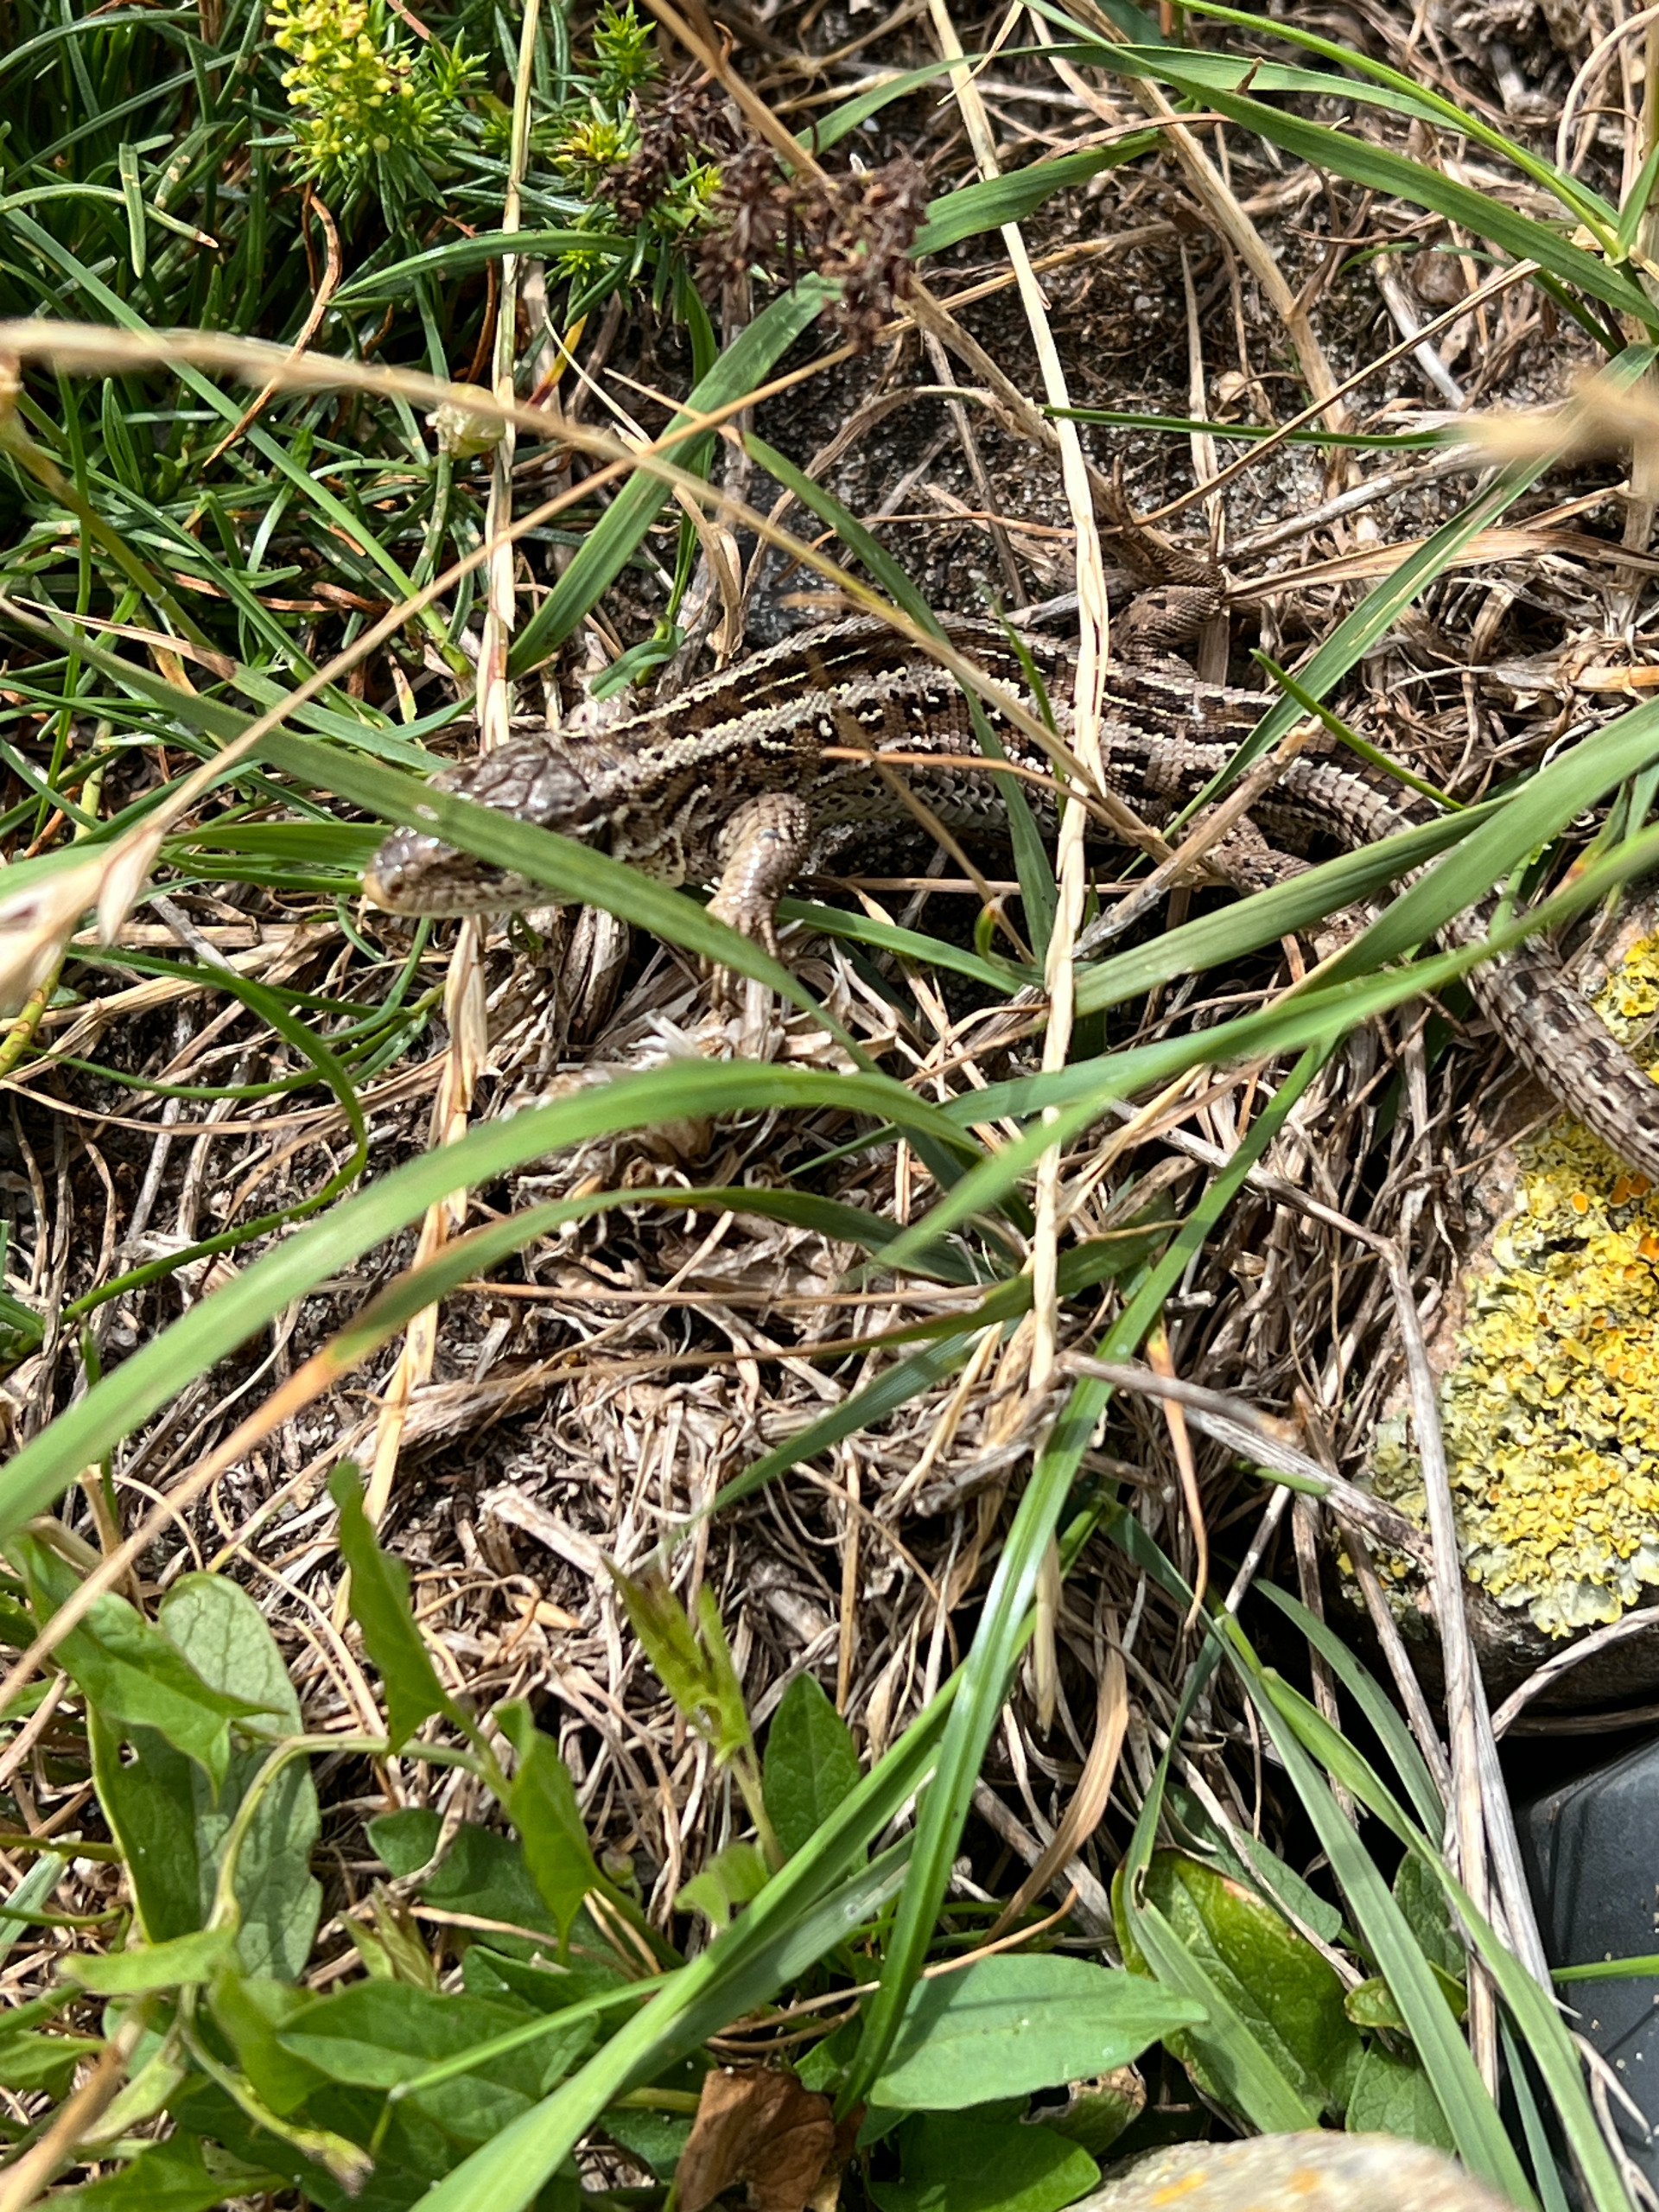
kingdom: Animalia
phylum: Chordata
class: Squamata
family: Lacertidae
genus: Lacerta
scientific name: Lacerta agilis
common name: Markfirben
